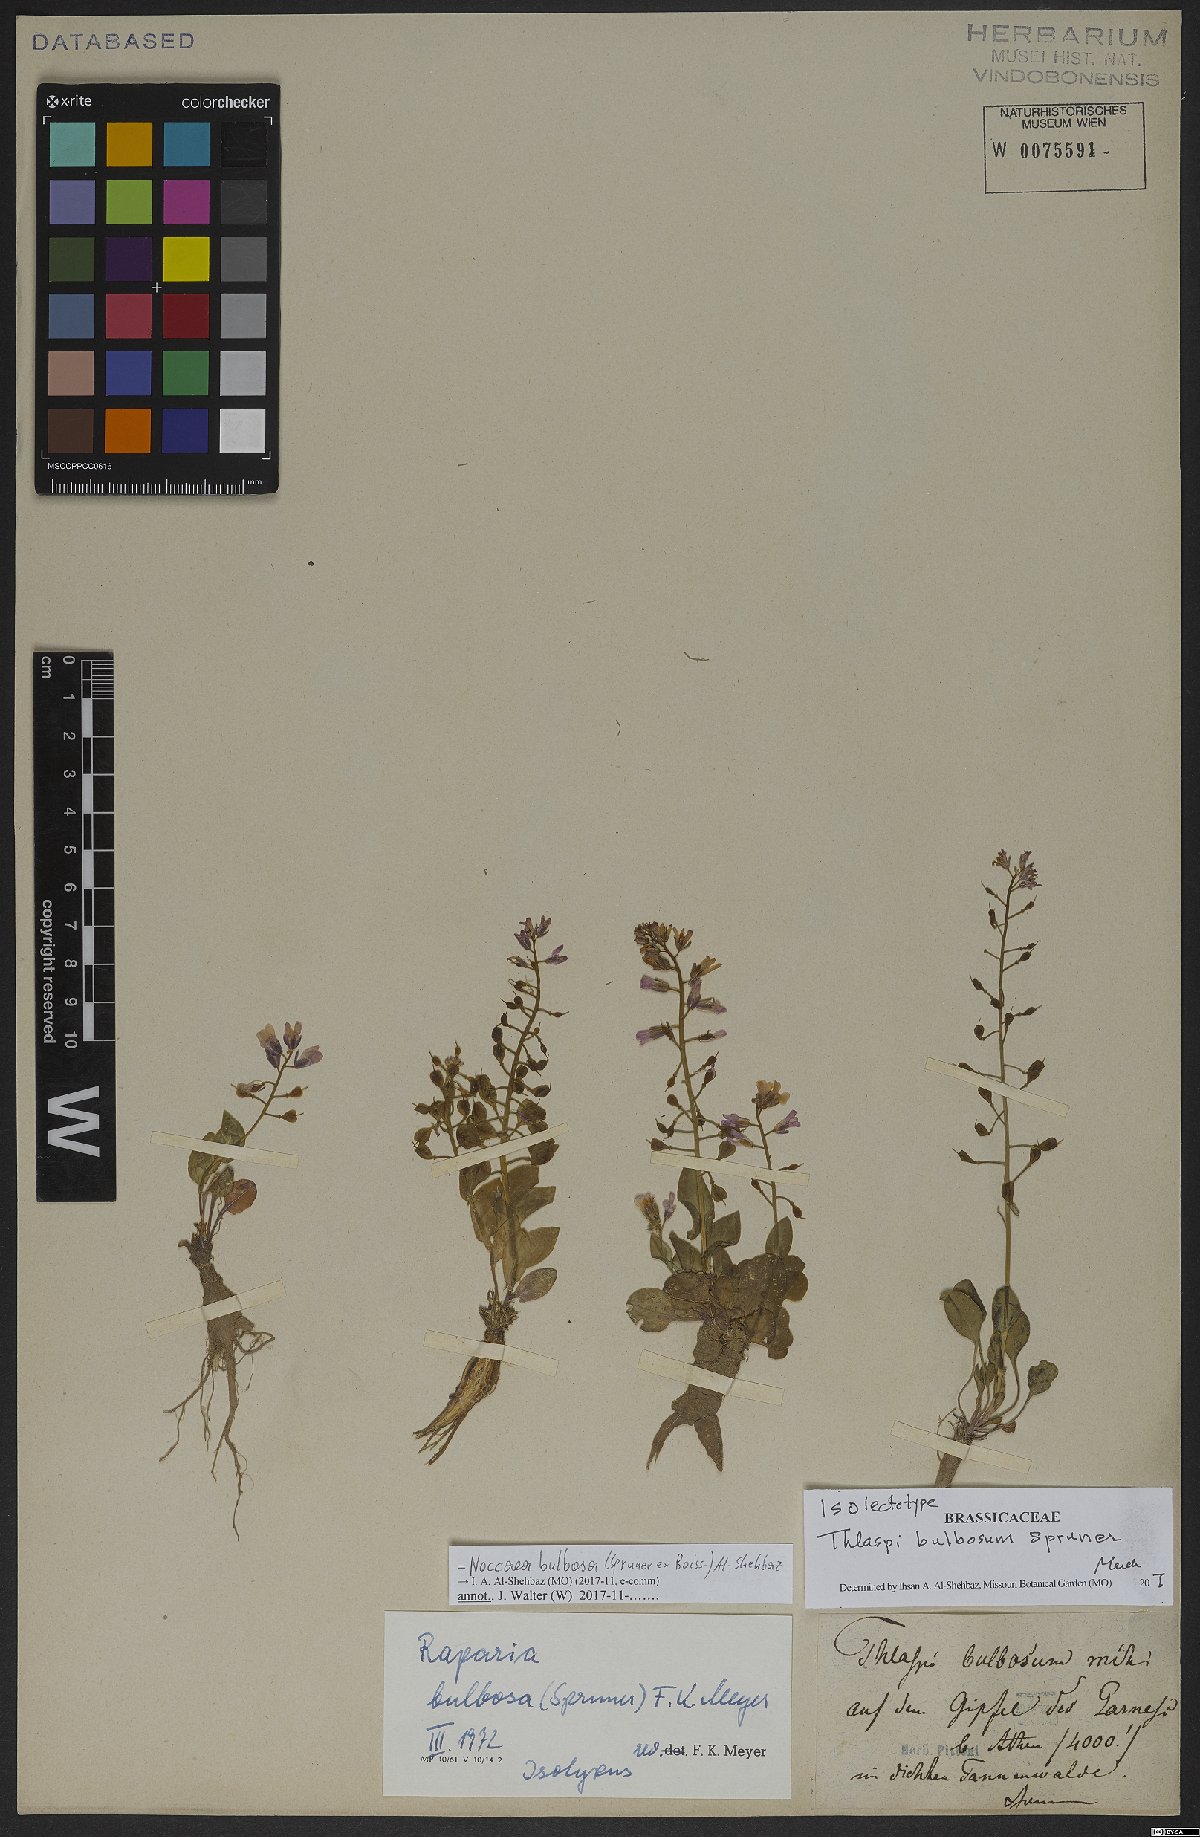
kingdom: Plantae
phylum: Tracheophyta
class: Magnoliopsida
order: Brassicales
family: Brassicaceae
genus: Noccaea
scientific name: Noccaea bulbosa
